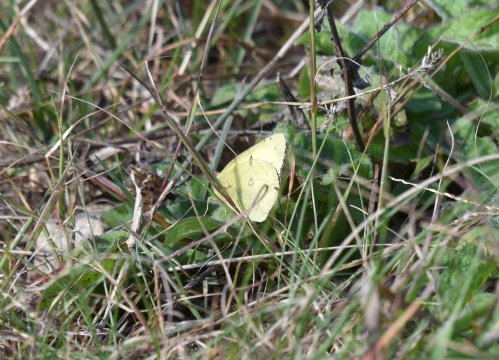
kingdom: Animalia
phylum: Arthropoda
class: Insecta
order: Lepidoptera
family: Pieridae
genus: Colias
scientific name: Colias philodice
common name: Clouded Sulphur
